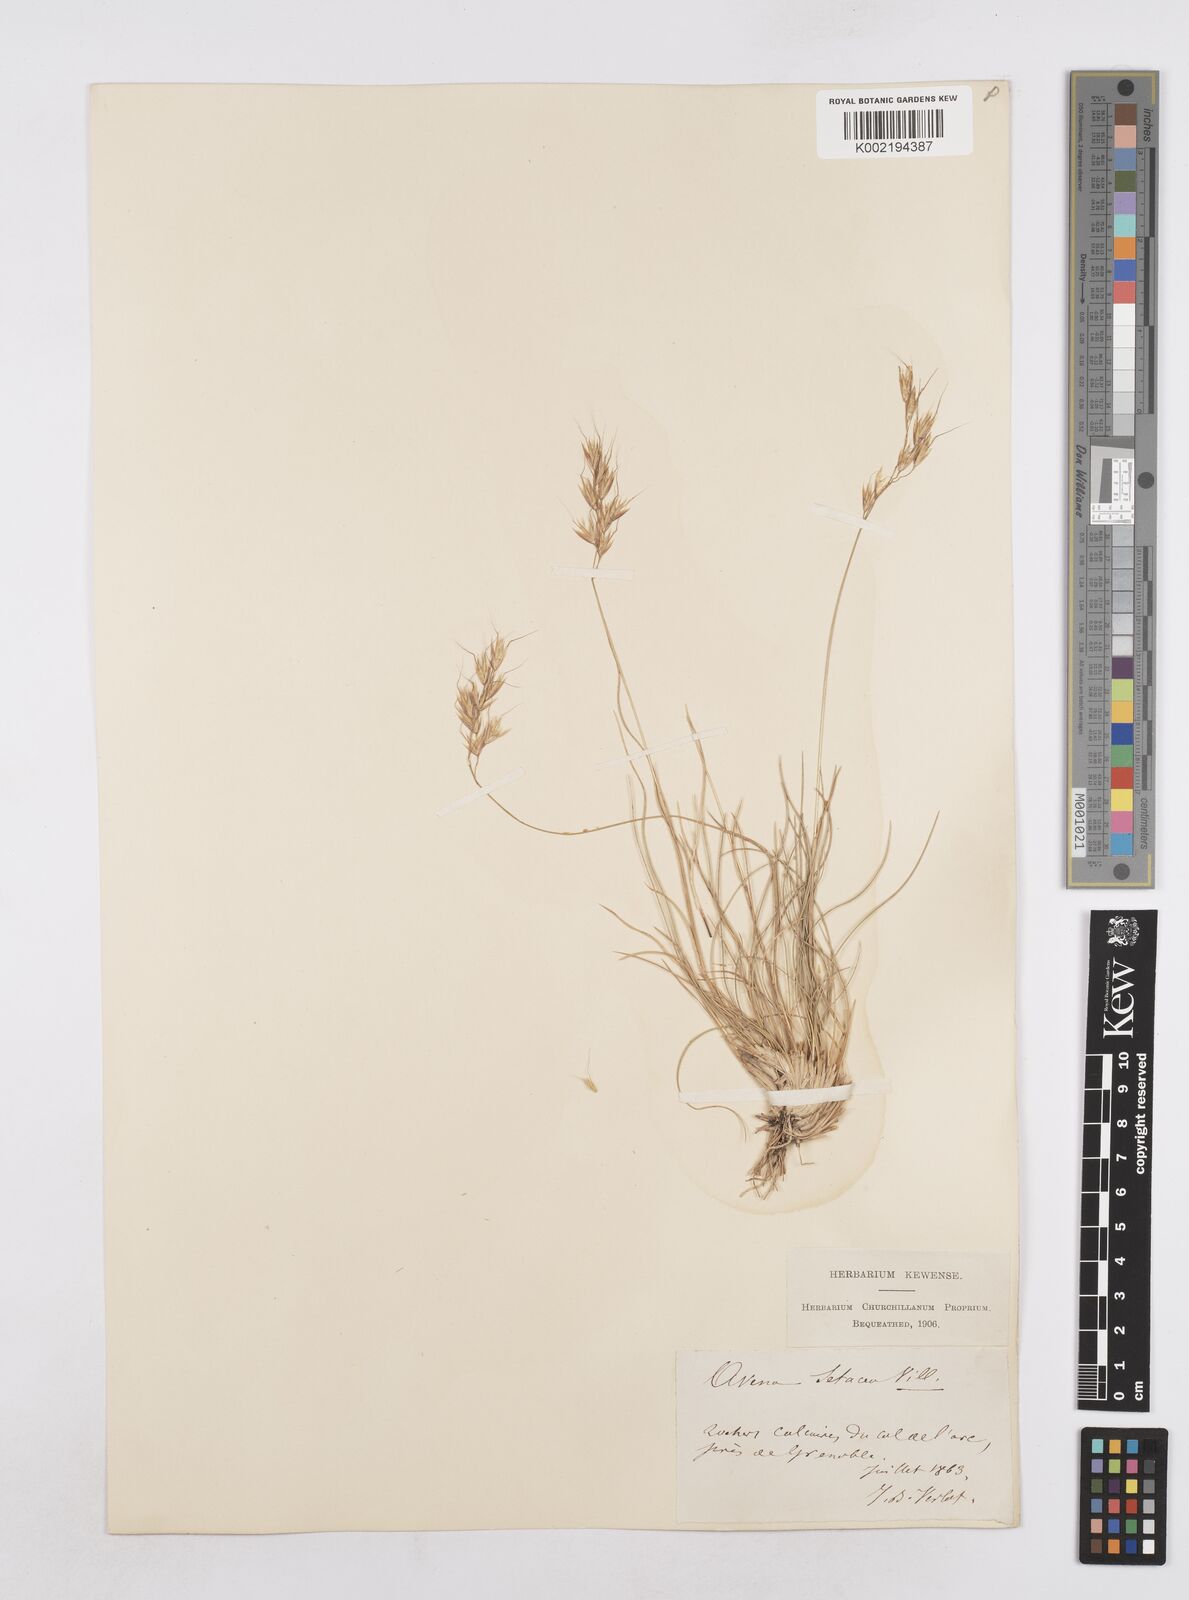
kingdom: Plantae
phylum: Tracheophyta
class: Liliopsida
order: Poales
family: Poaceae
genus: Helictotrichon
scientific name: Helictotrichon setaceum
